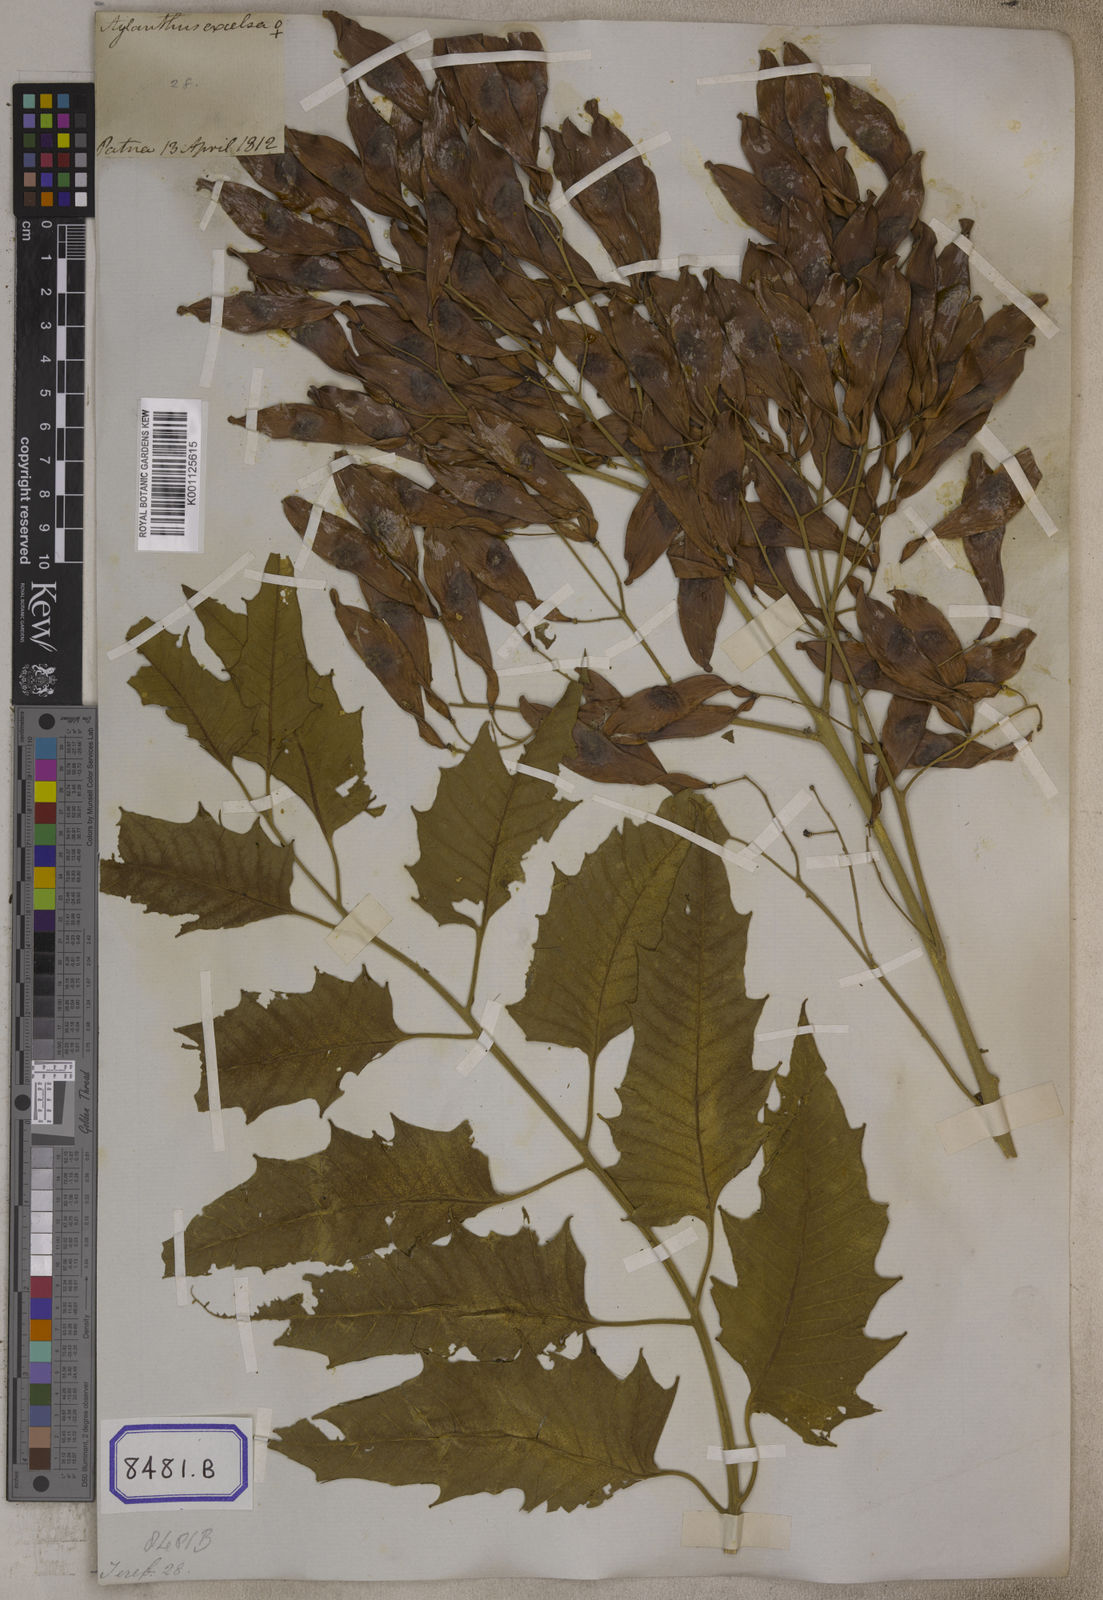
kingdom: Plantae
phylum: Tracheophyta
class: Magnoliopsida
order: Sapindales
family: Simaroubaceae
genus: Ailanthus
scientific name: Ailanthus excelsa
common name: Indian tree-of-heaven
